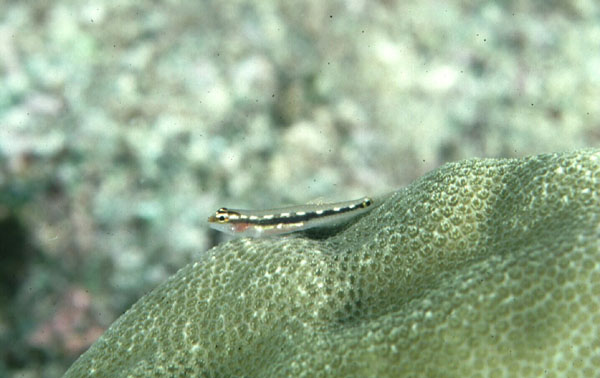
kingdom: Animalia
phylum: Chordata
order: Perciformes
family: Gobiidae
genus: Eviota
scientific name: Eviota sebreei
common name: Sebree's pygmy goby
